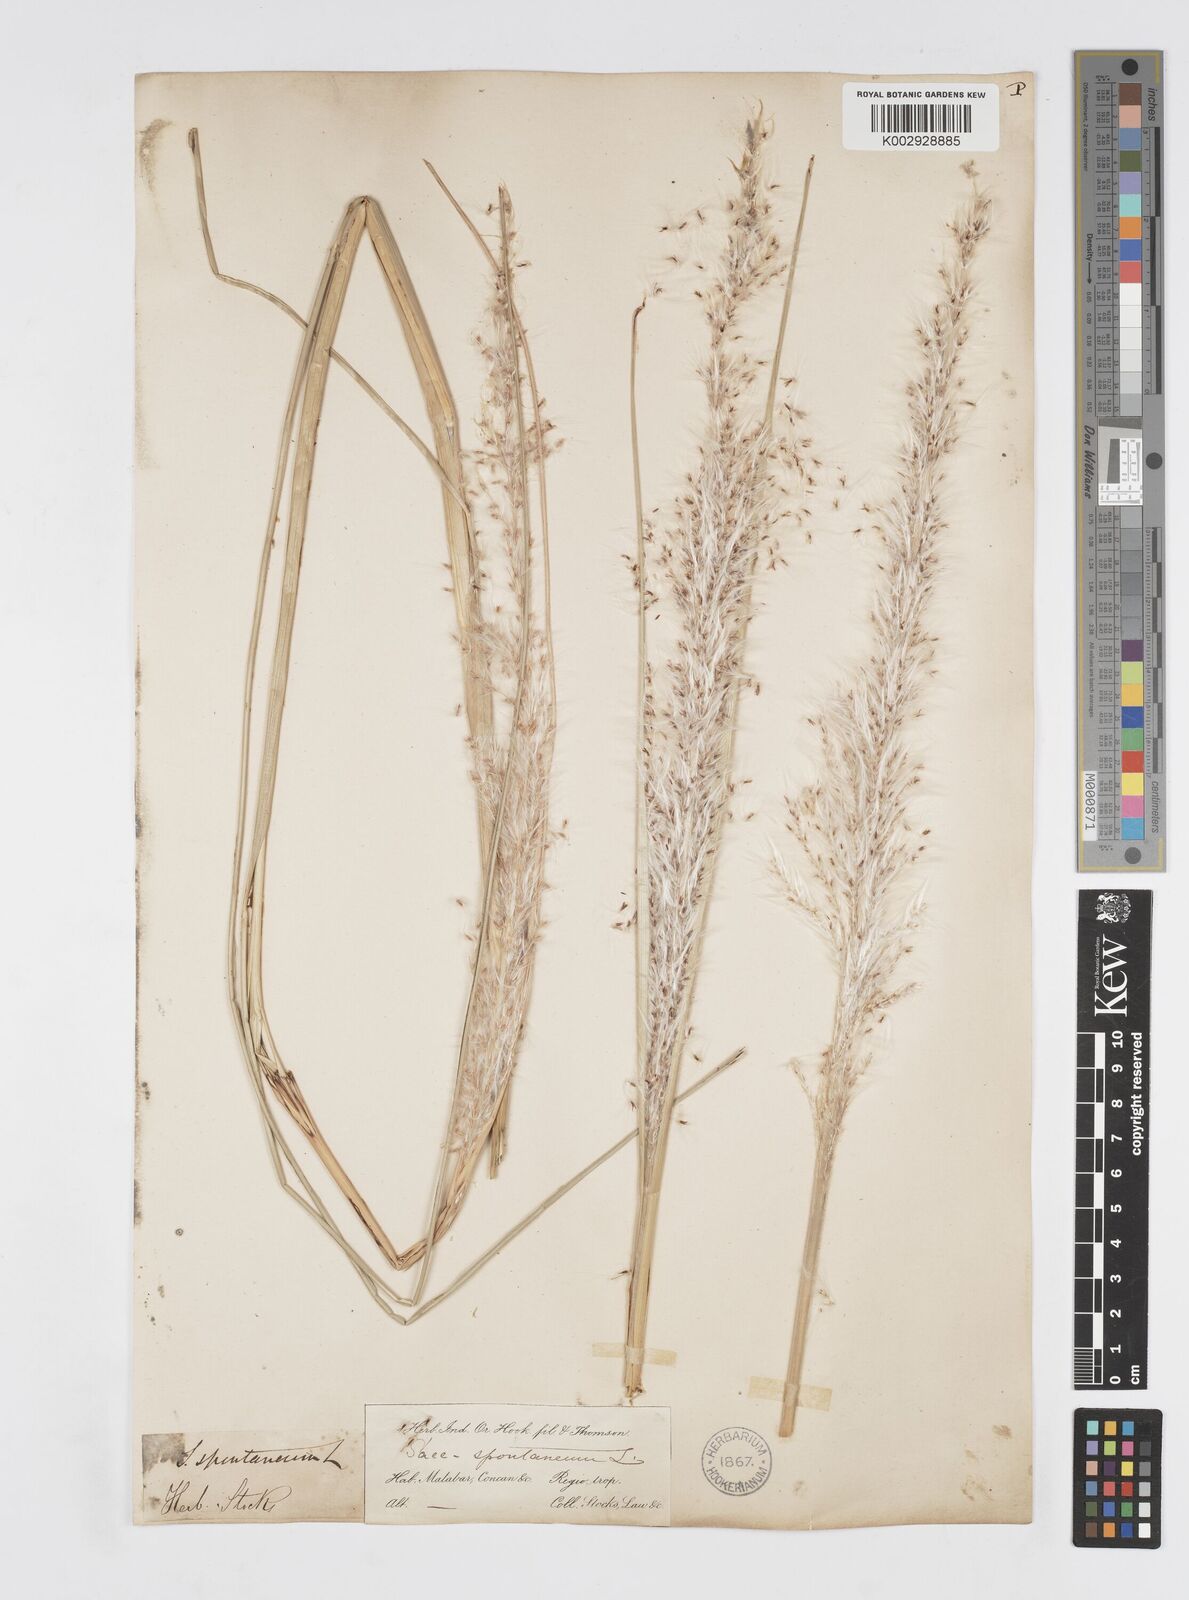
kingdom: Plantae
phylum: Tracheophyta
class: Liliopsida
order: Poales
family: Poaceae
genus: Saccharum
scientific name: Saccharum spontaneum
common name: Wild sugarcane
